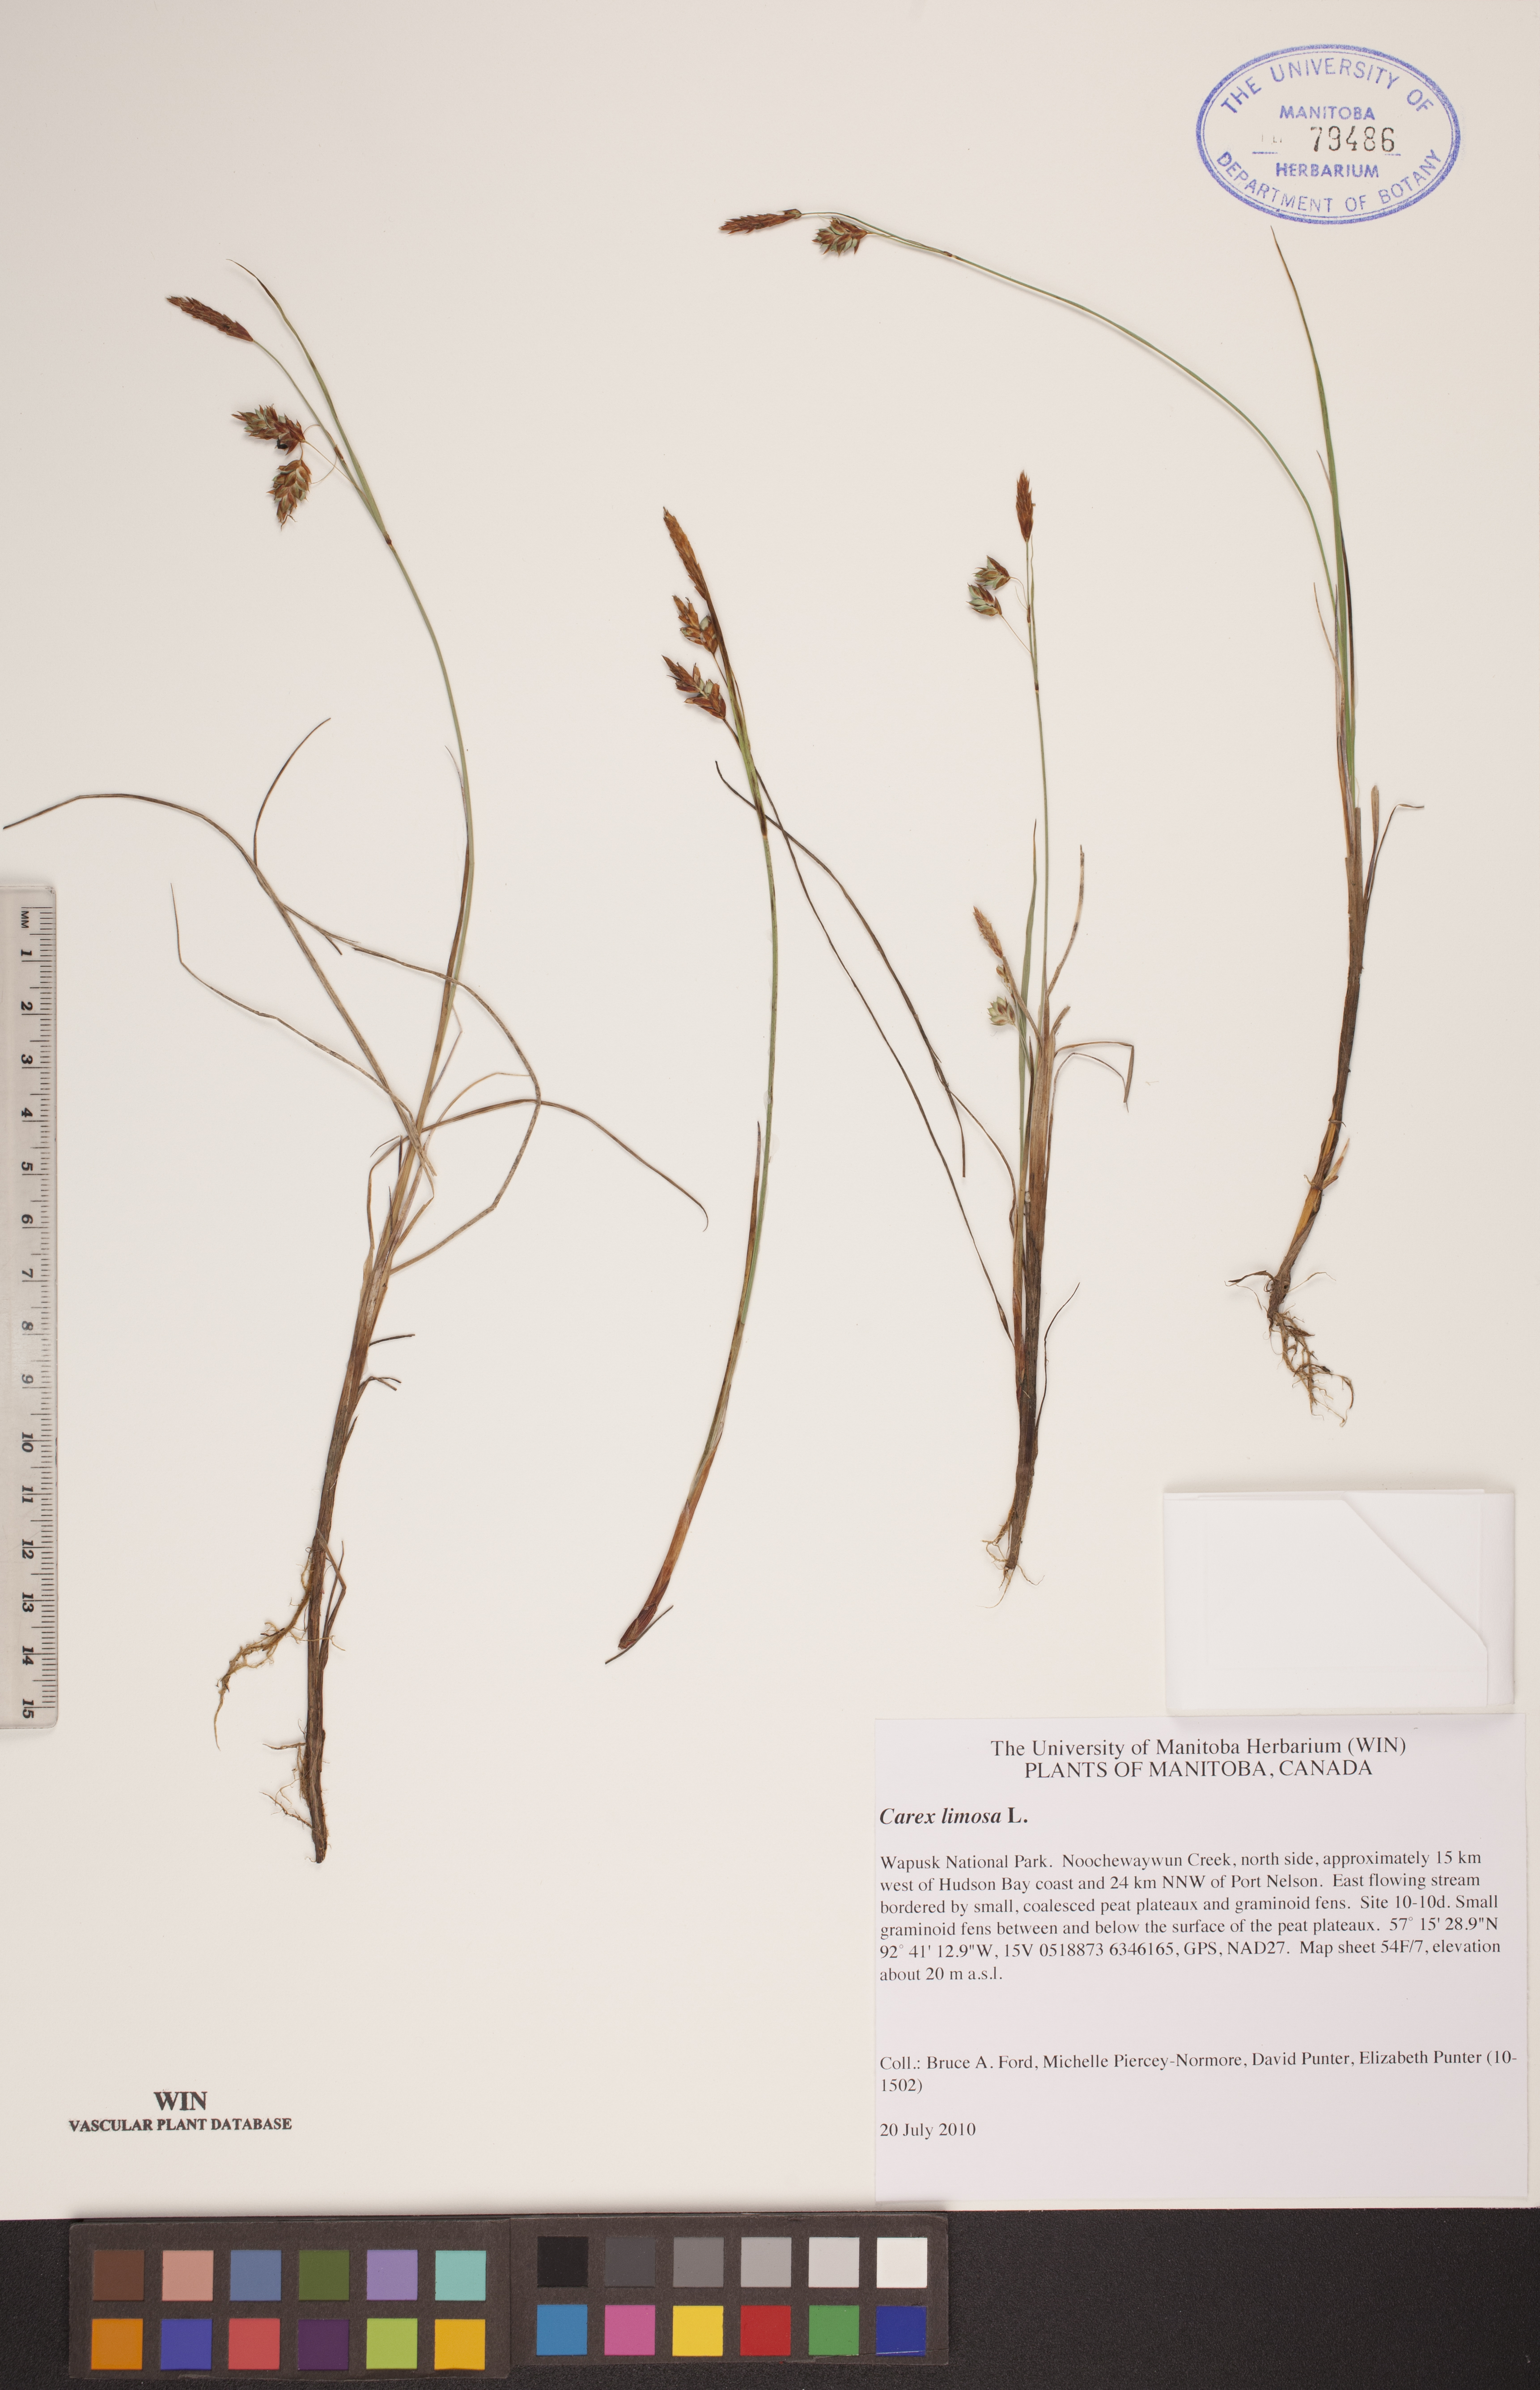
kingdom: Plantae
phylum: Tracheophyta
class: Liliopsida
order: Poales
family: Cyperaceae
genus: Carex
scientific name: Carex limosa
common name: Bog sedge
